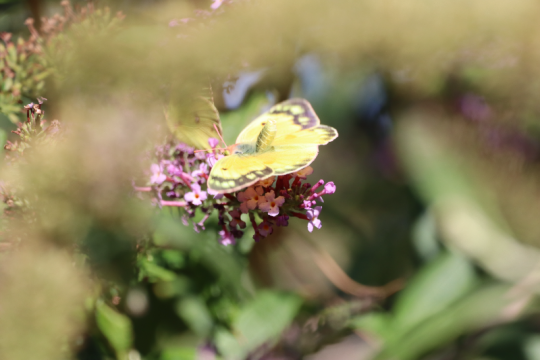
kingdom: Animalia
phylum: Arthropoda
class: Insecta
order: Lepidoptera
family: Pieridae
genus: Colias
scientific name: Colias eurytheme
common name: Orange Sulphur
